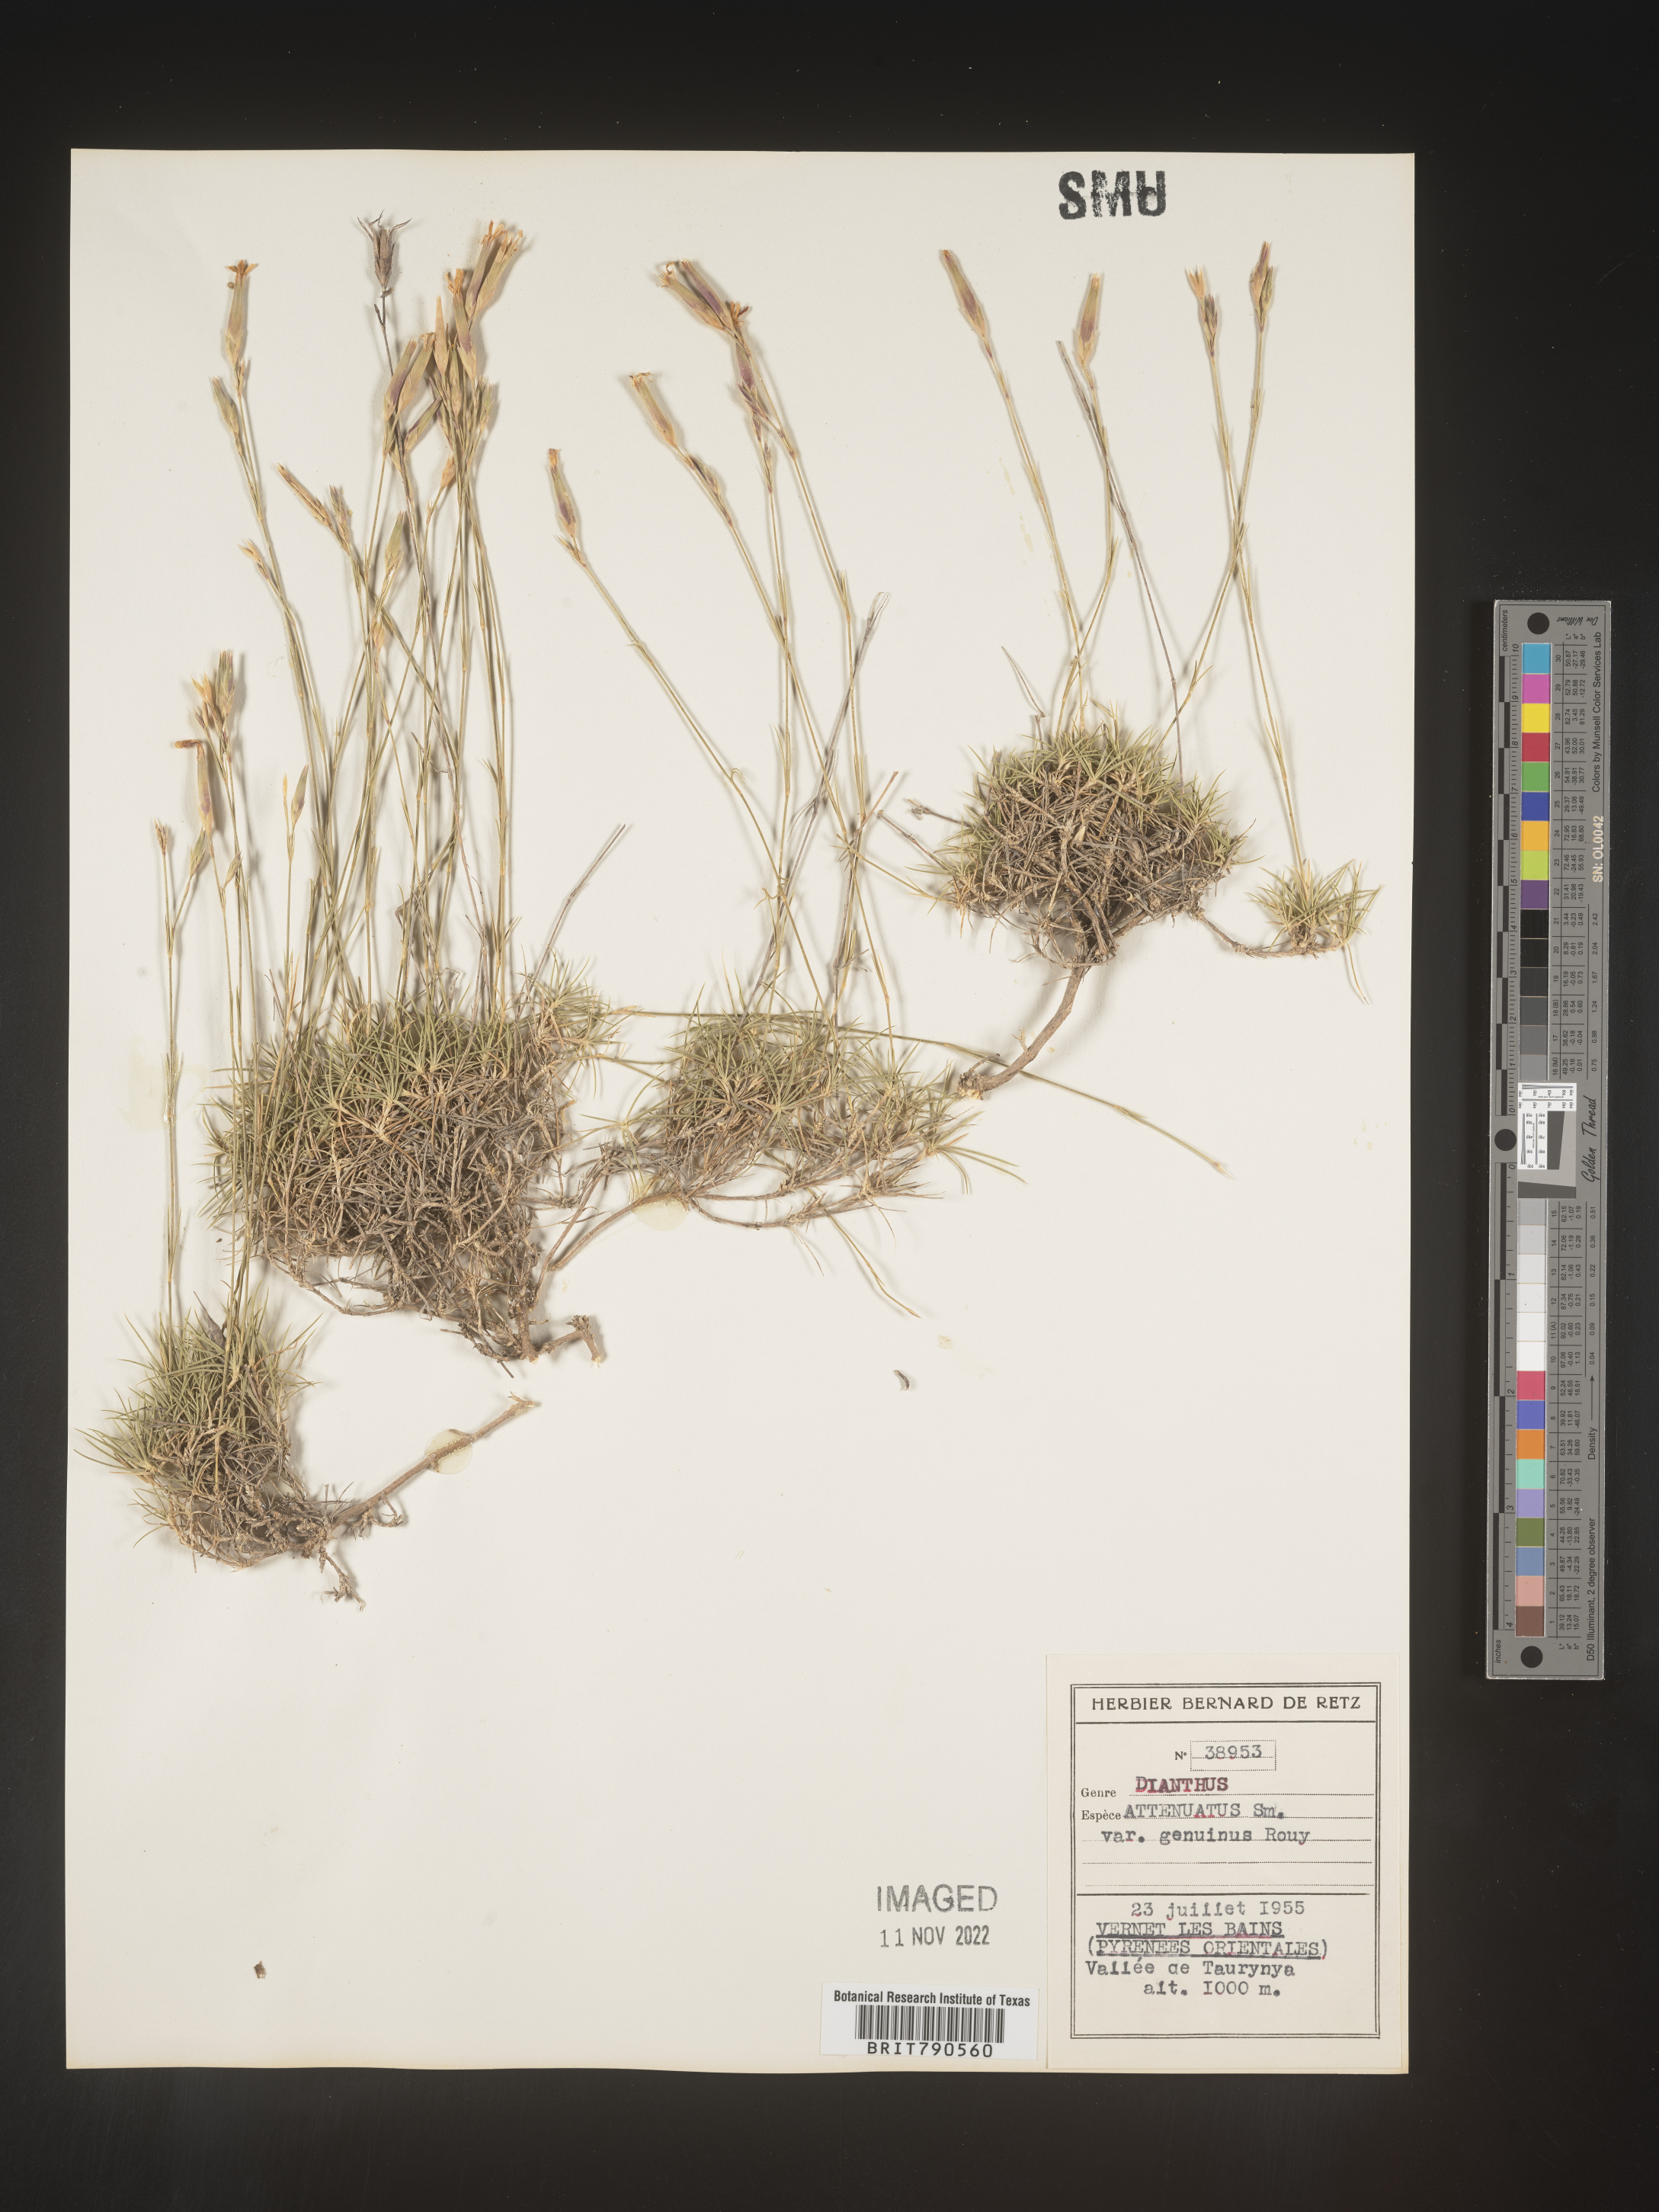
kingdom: Plantae
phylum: Tracheophyta
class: Magnoliopsida
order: Caryophyllales
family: Caryophyllaceae
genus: Dianthus
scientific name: Dianthus
